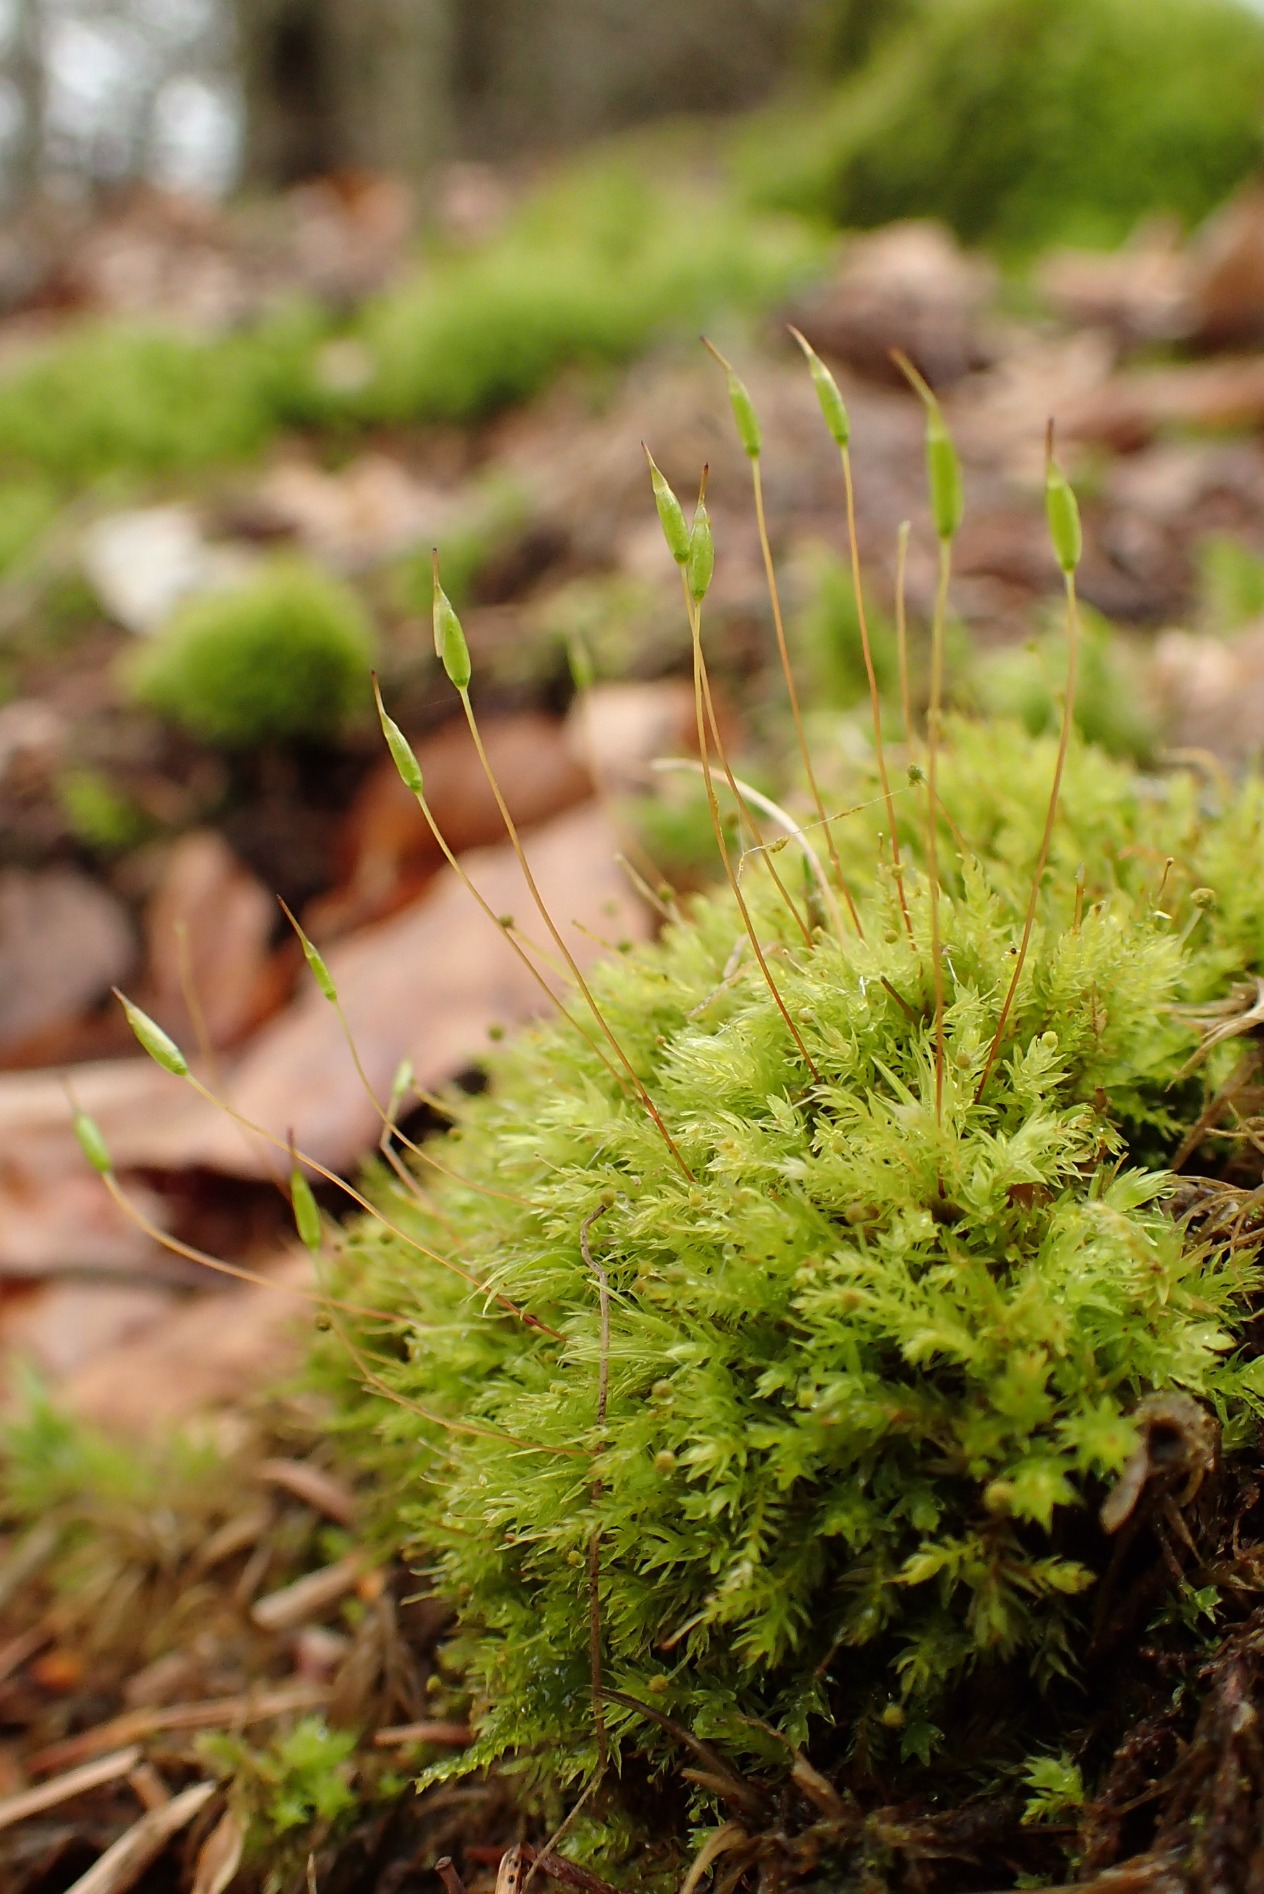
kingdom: Plantae
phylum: Bryophyta
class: Bryopsida
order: Aulacomniales
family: Aulacomniaceae
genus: Aulacomnium
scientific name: Aulacomnium androgynum
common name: Kugle-filtmos
